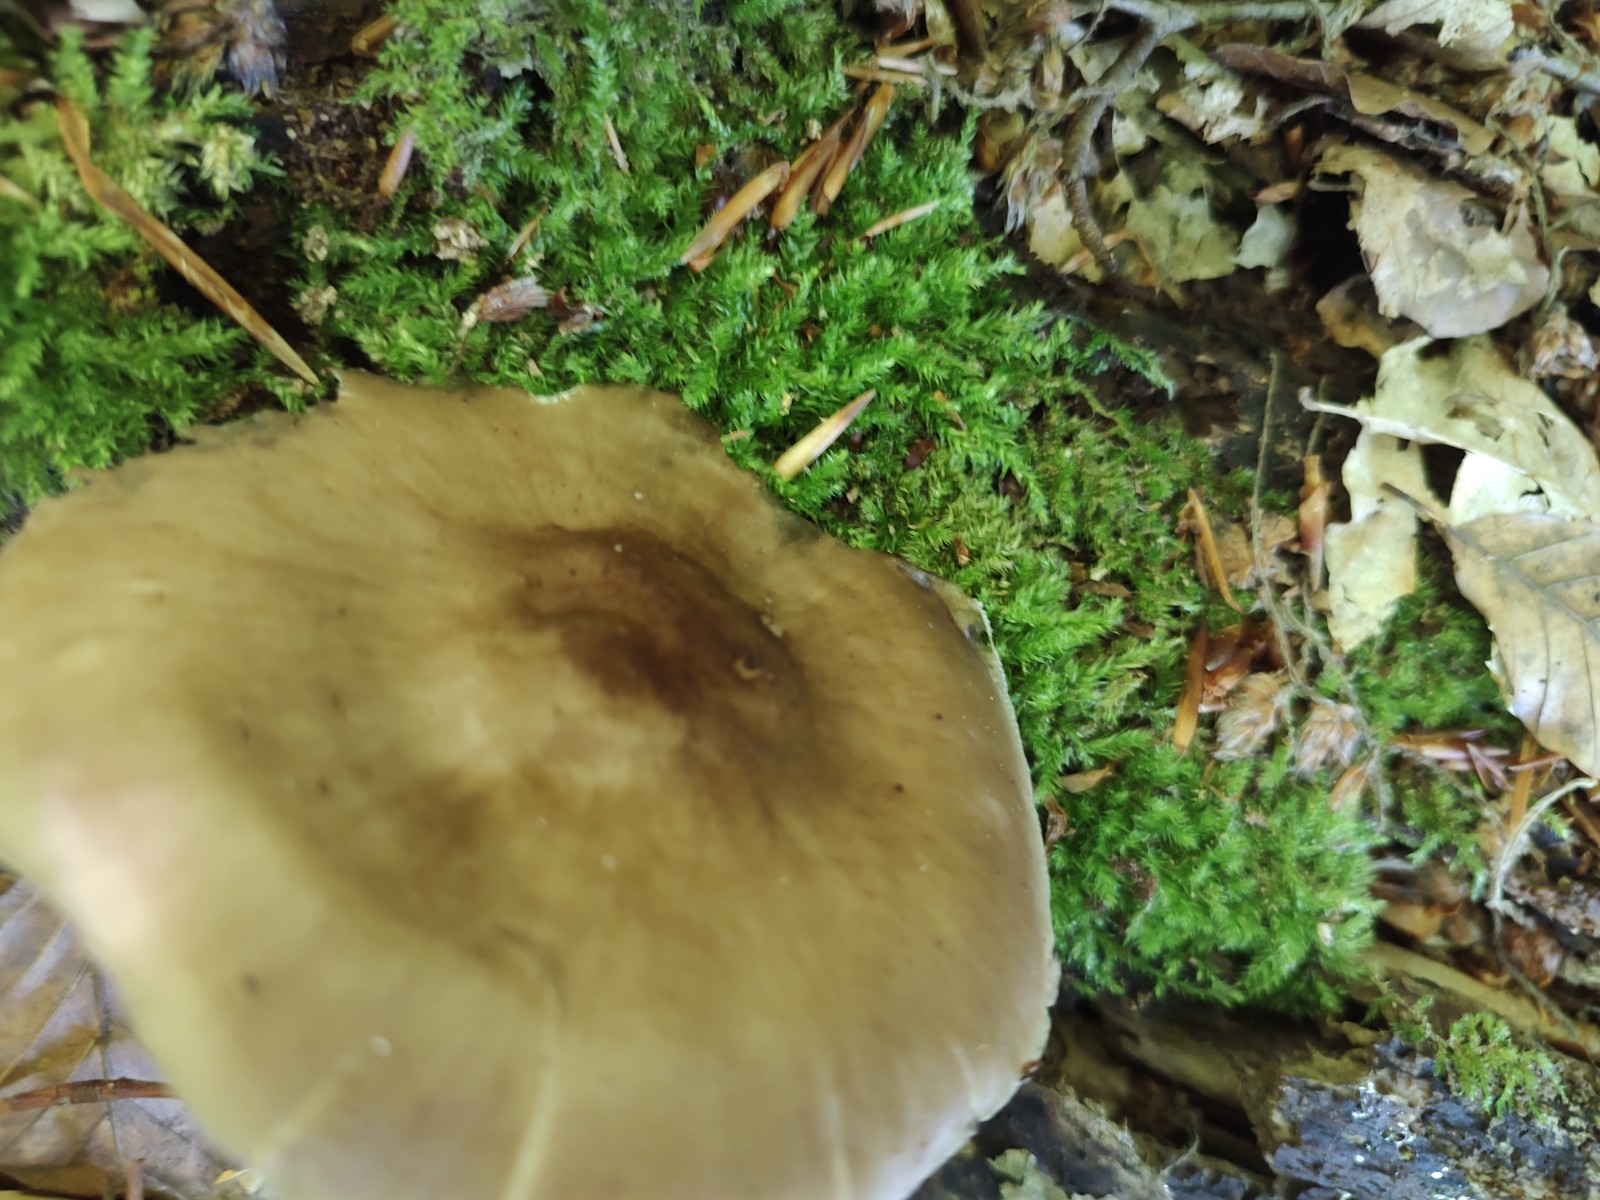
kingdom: Fungi
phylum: Basidiomycota
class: Agaricomycetes
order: Agaricales
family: Pluteaceae
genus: Pluteus
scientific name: Pluteus salicinus
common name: stiv skærmhat
